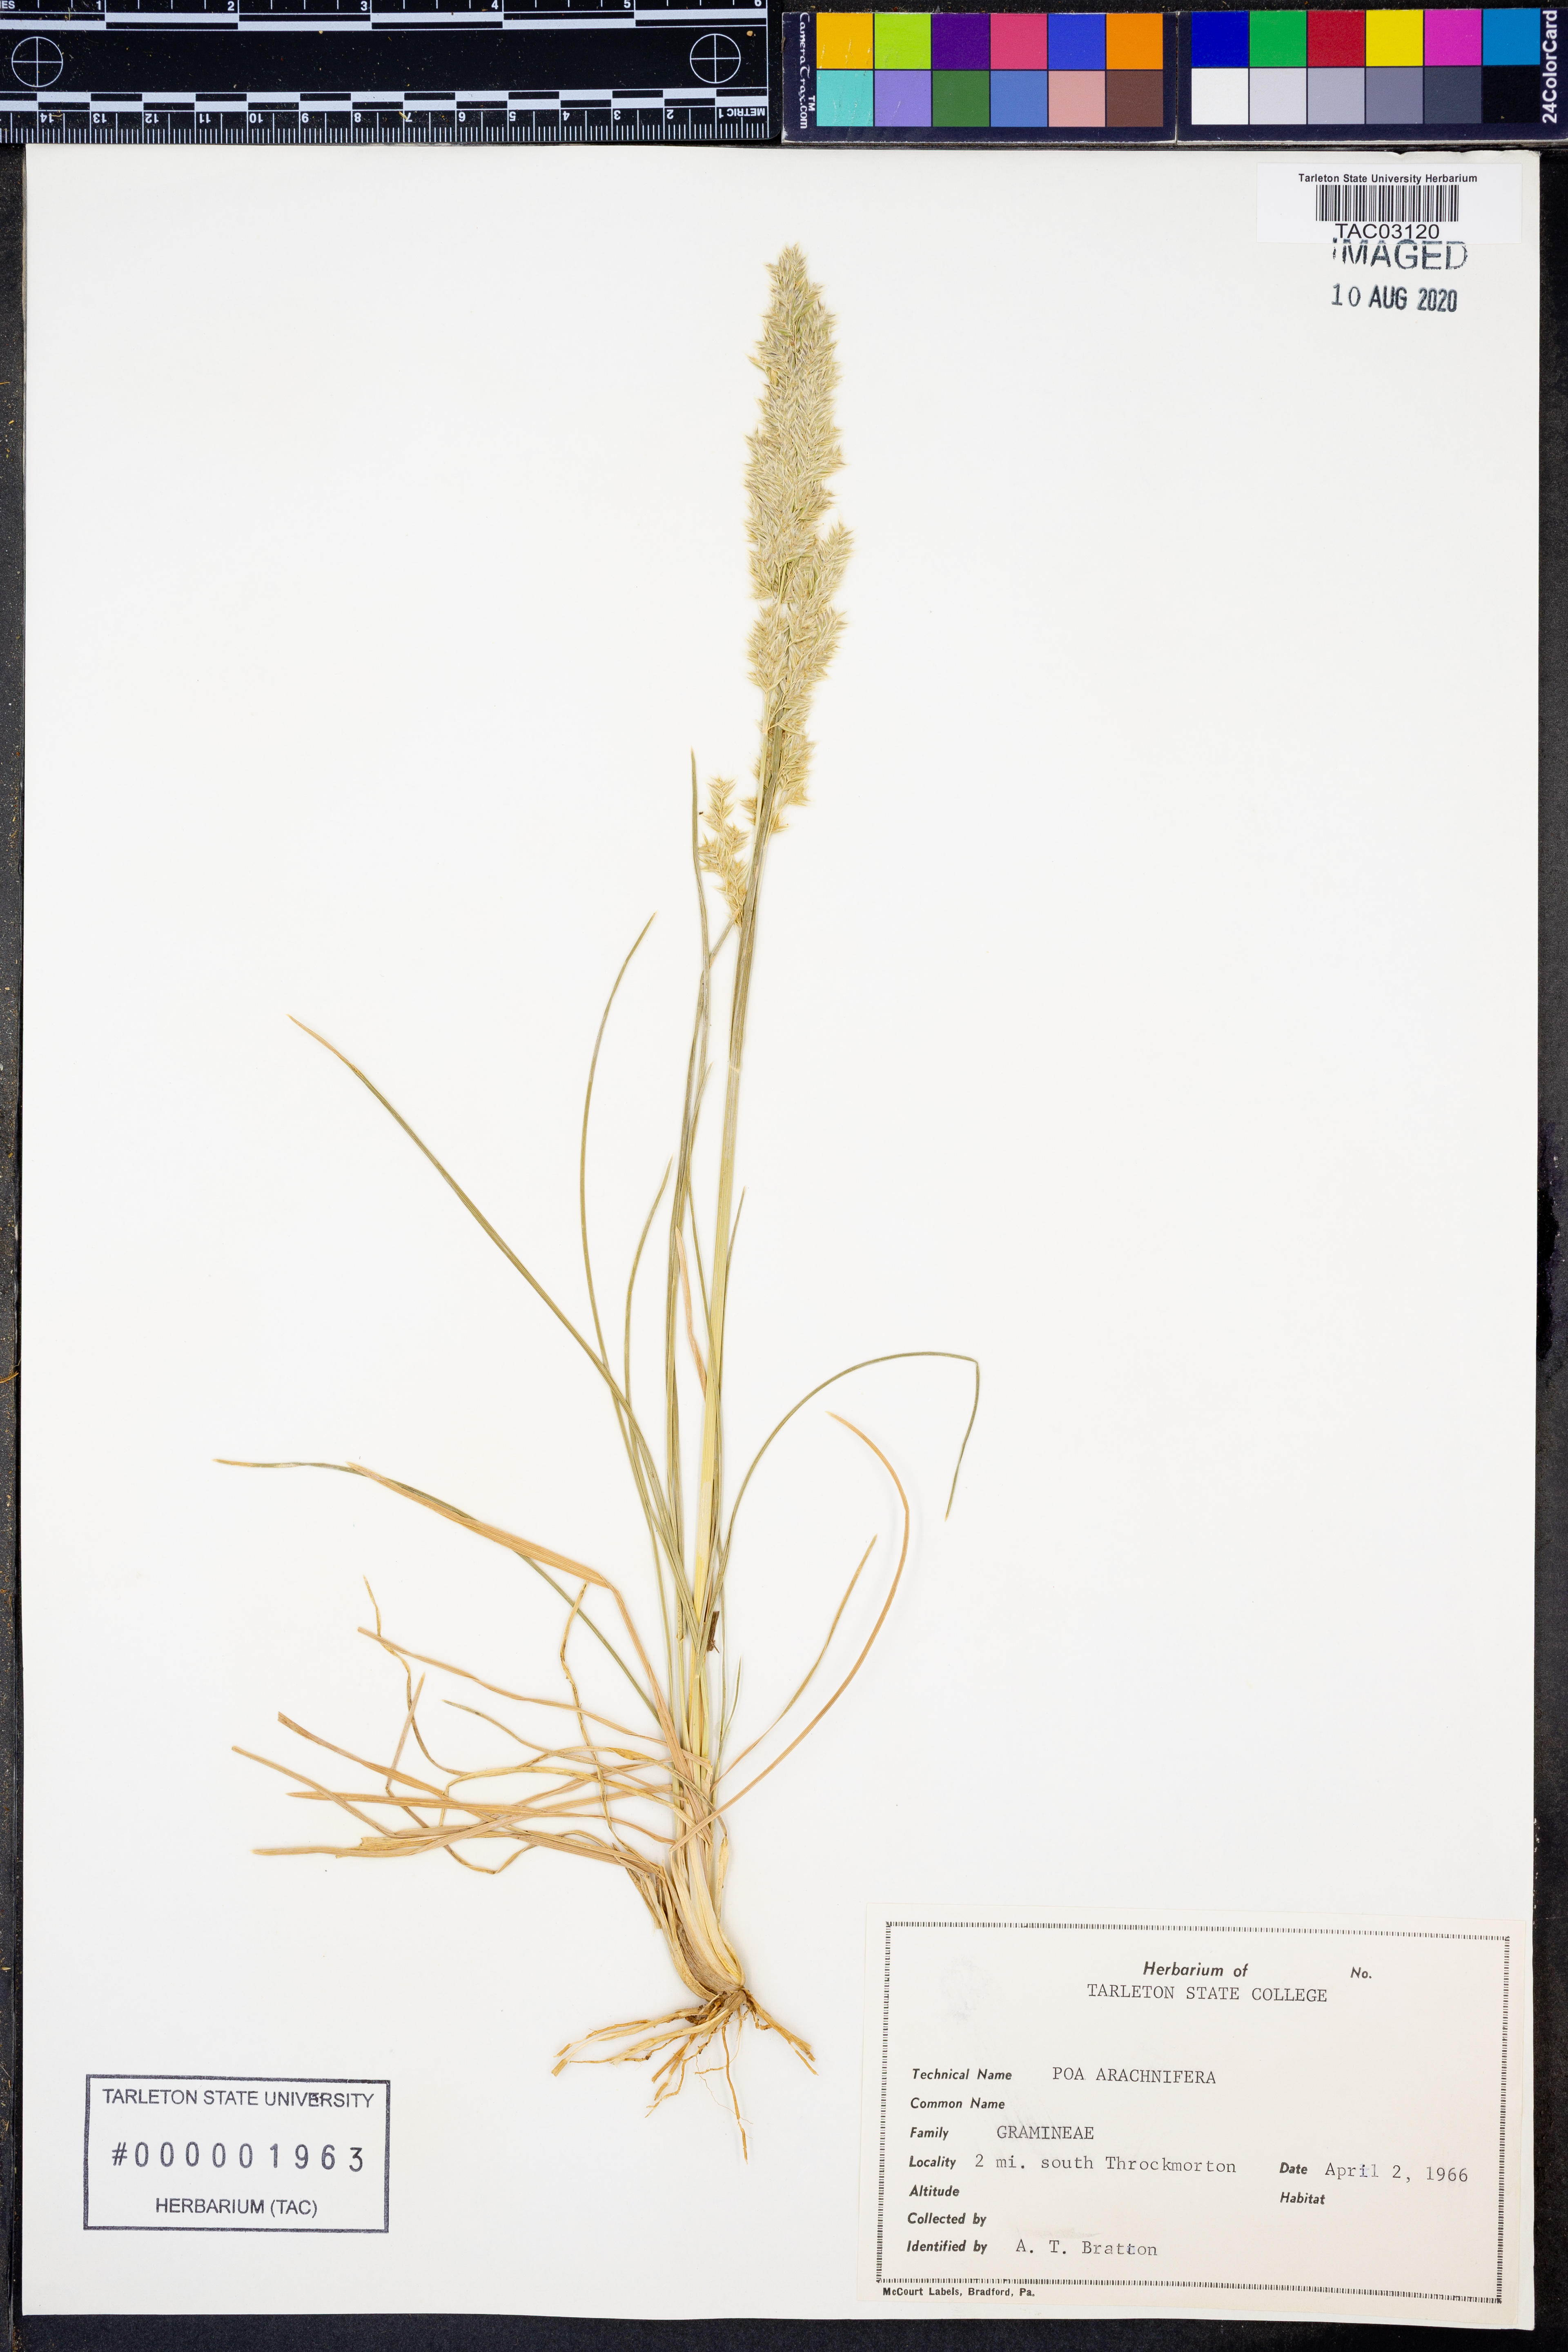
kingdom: Plantae
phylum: Tracheophyta
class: Liliopsida
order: Poales
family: Poaceae
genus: Poa
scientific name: Poa arachnifera
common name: Texas bluegrass
